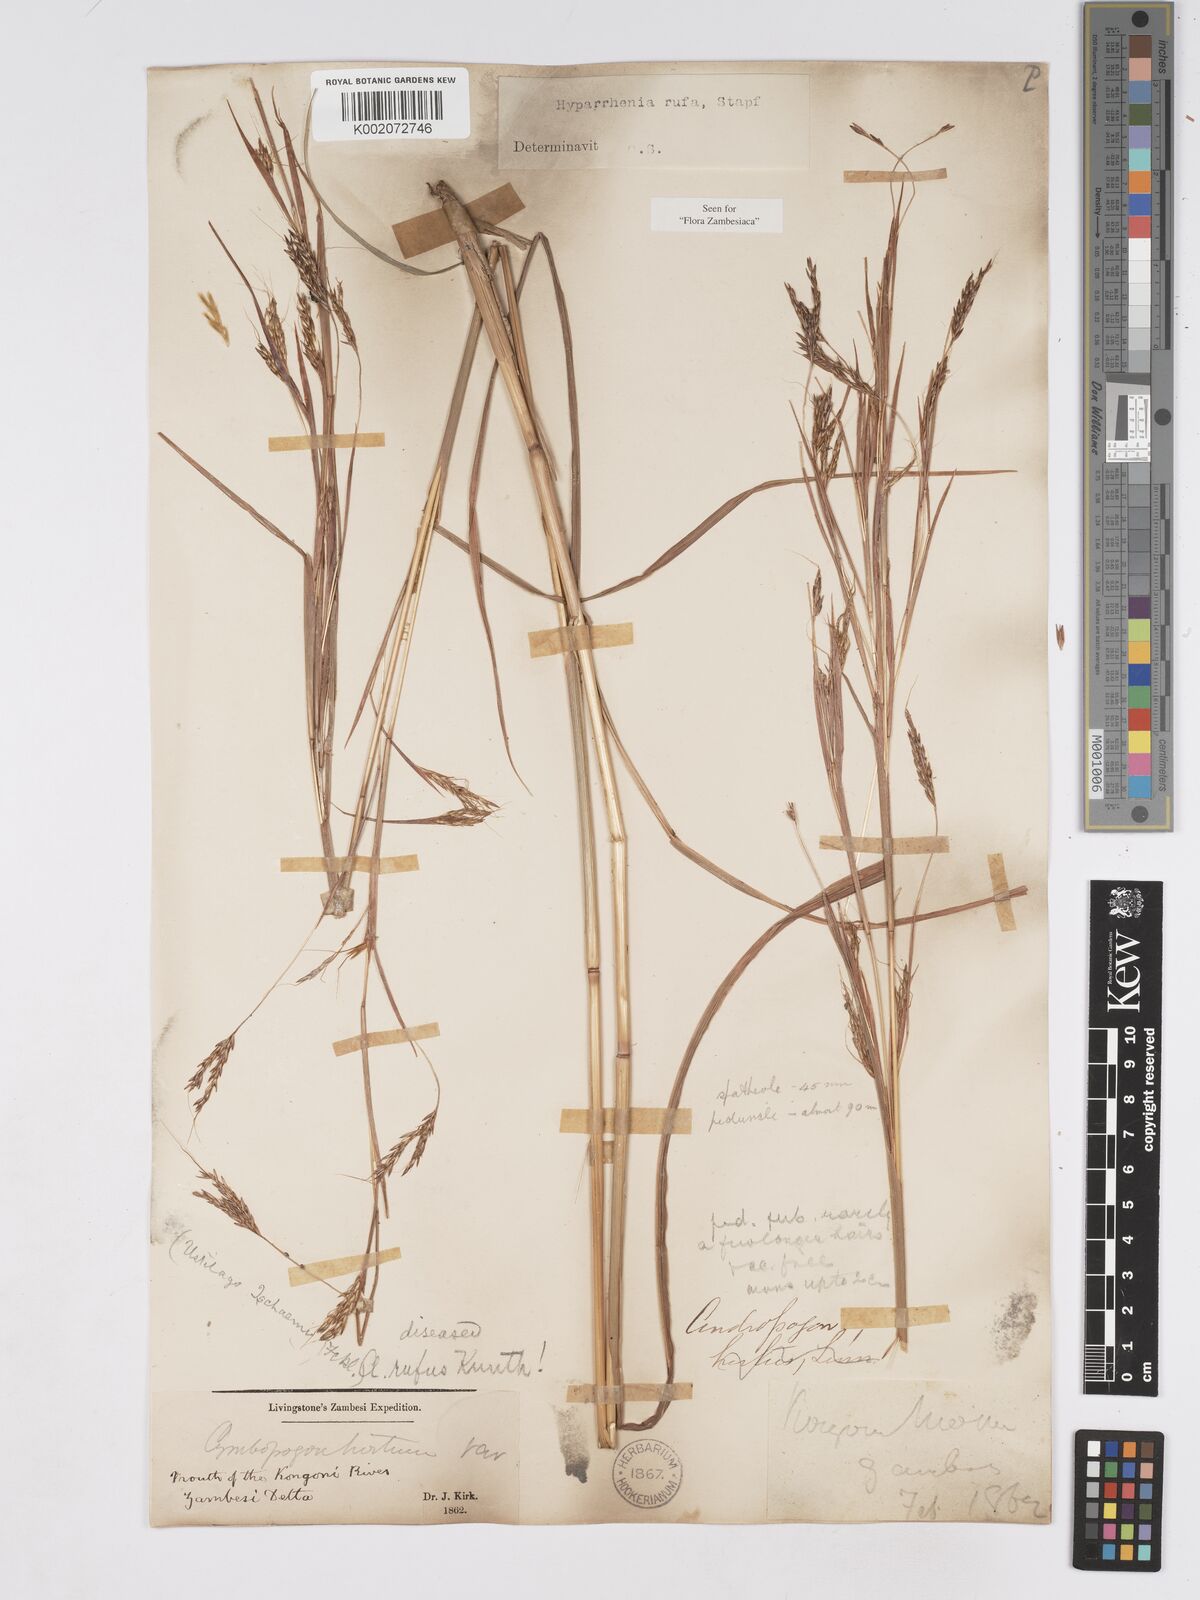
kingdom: Plantae
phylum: Tracheophyta
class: Liliopsida
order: Poales
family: Poaceae
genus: Hyparrhenia
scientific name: Hyparrhenia rufa
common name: Jaraguagrass
